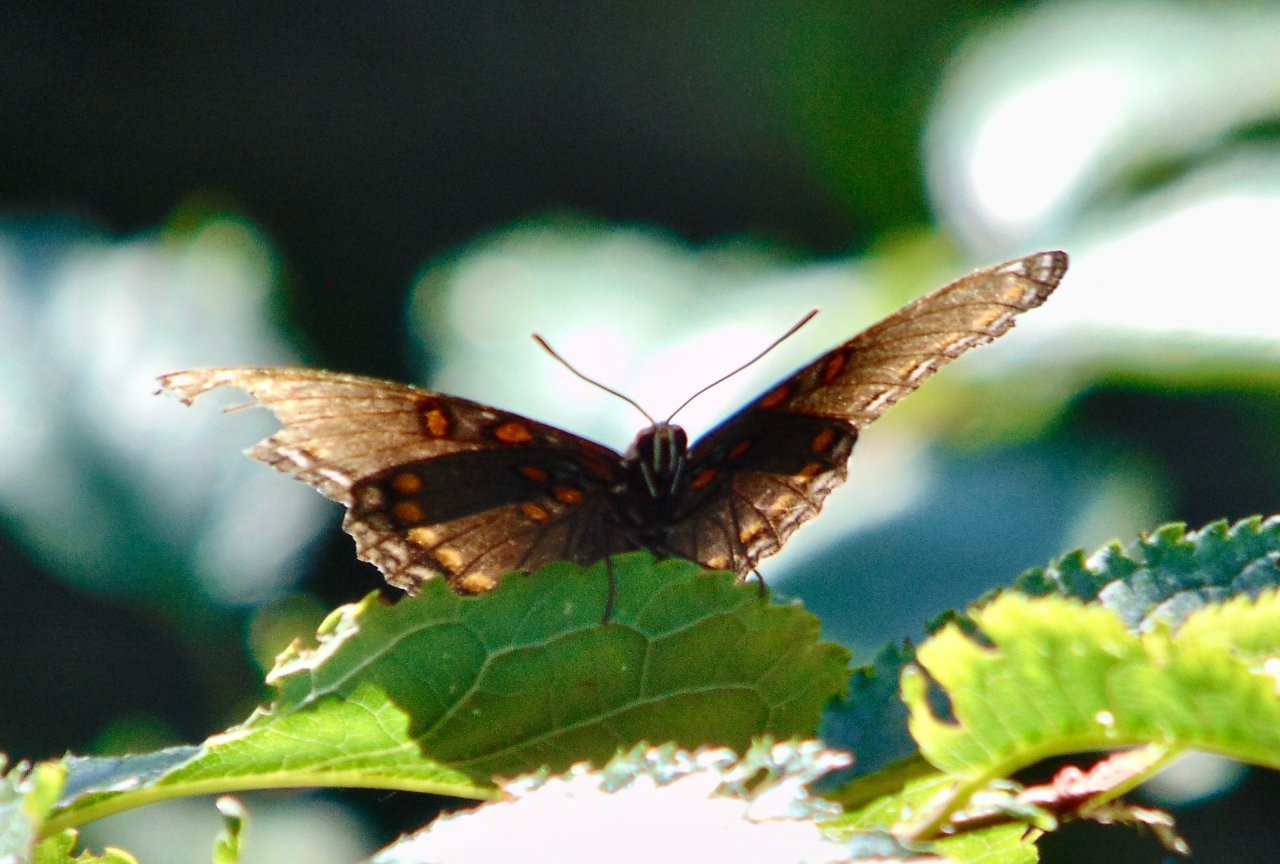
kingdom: Animalia
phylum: Arthropoda
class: Insecta
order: Lepidoptera
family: Nymphalidae
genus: Limenitis
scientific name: Limenitis astyanax
